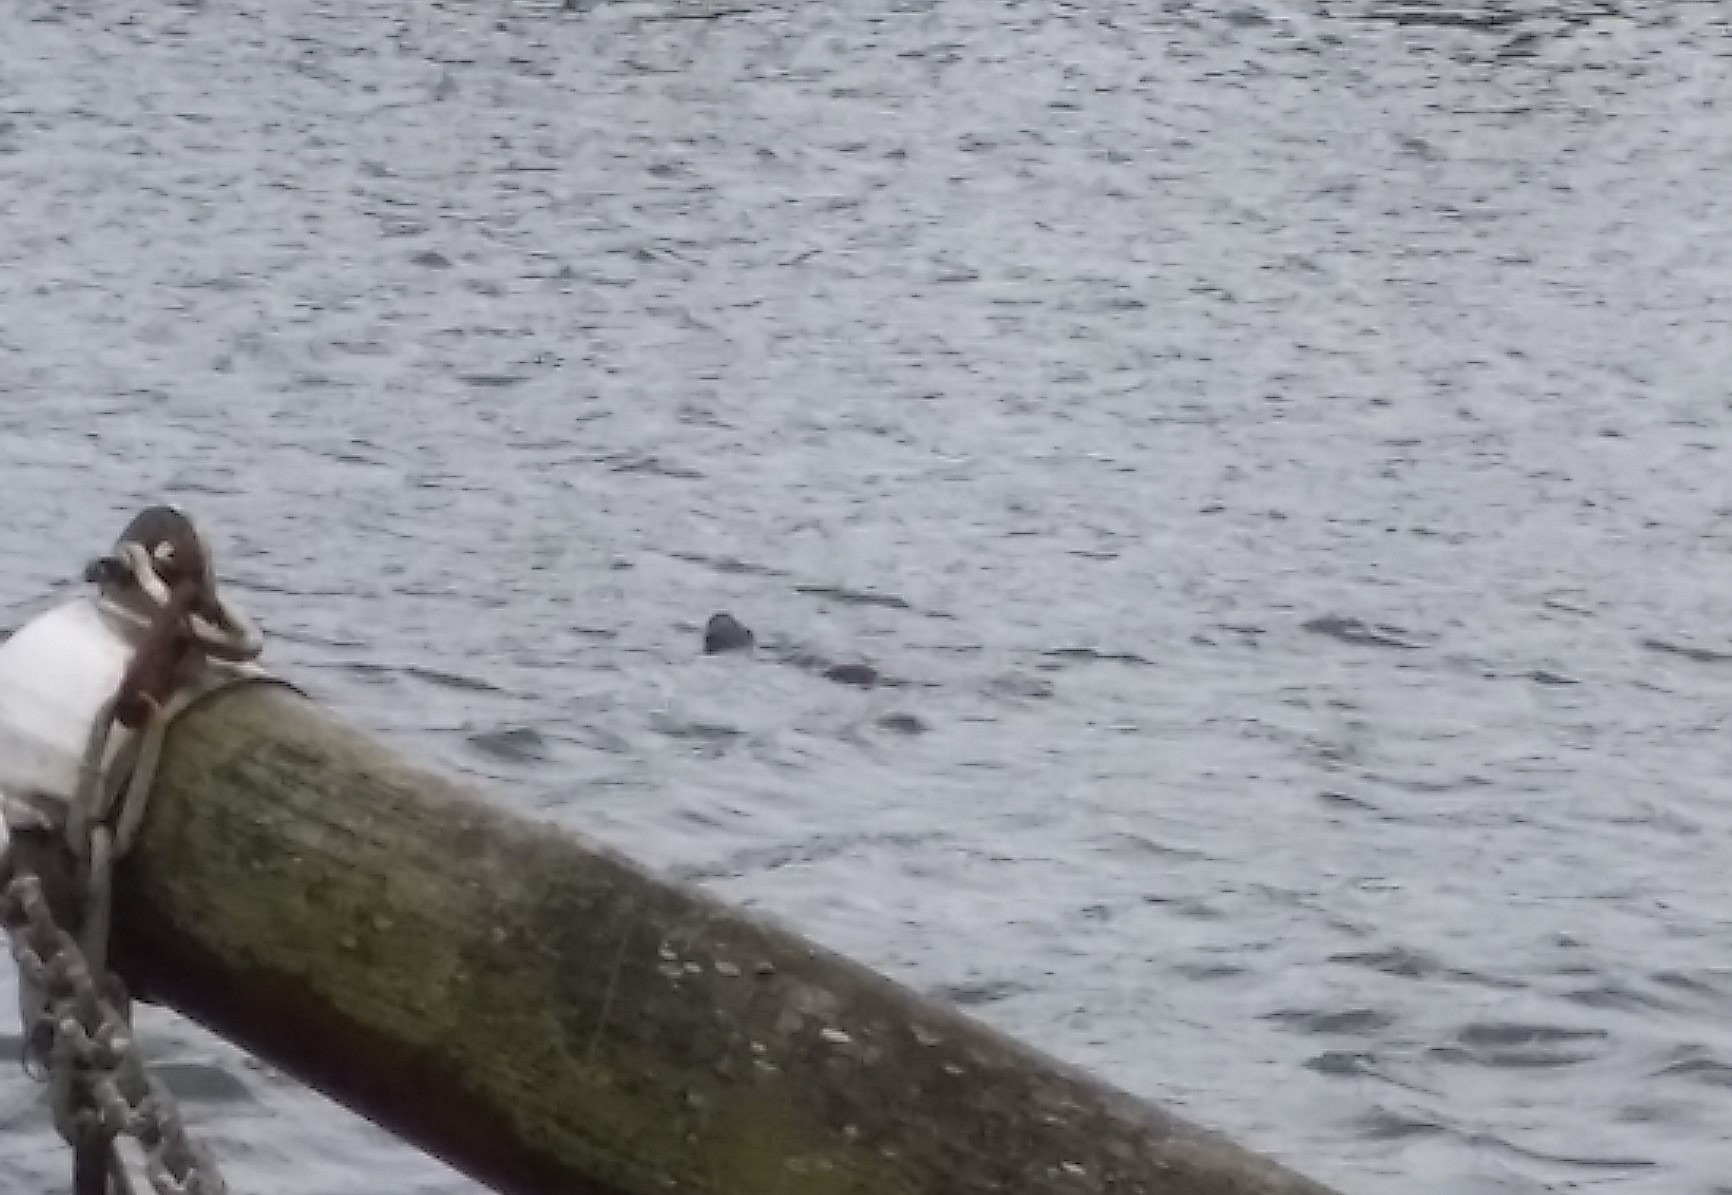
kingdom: Animalia
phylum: Chordata
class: Mammalia
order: Carnivora
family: Mustelidae
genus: Lutra
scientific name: Lutra lutra
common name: Odder
